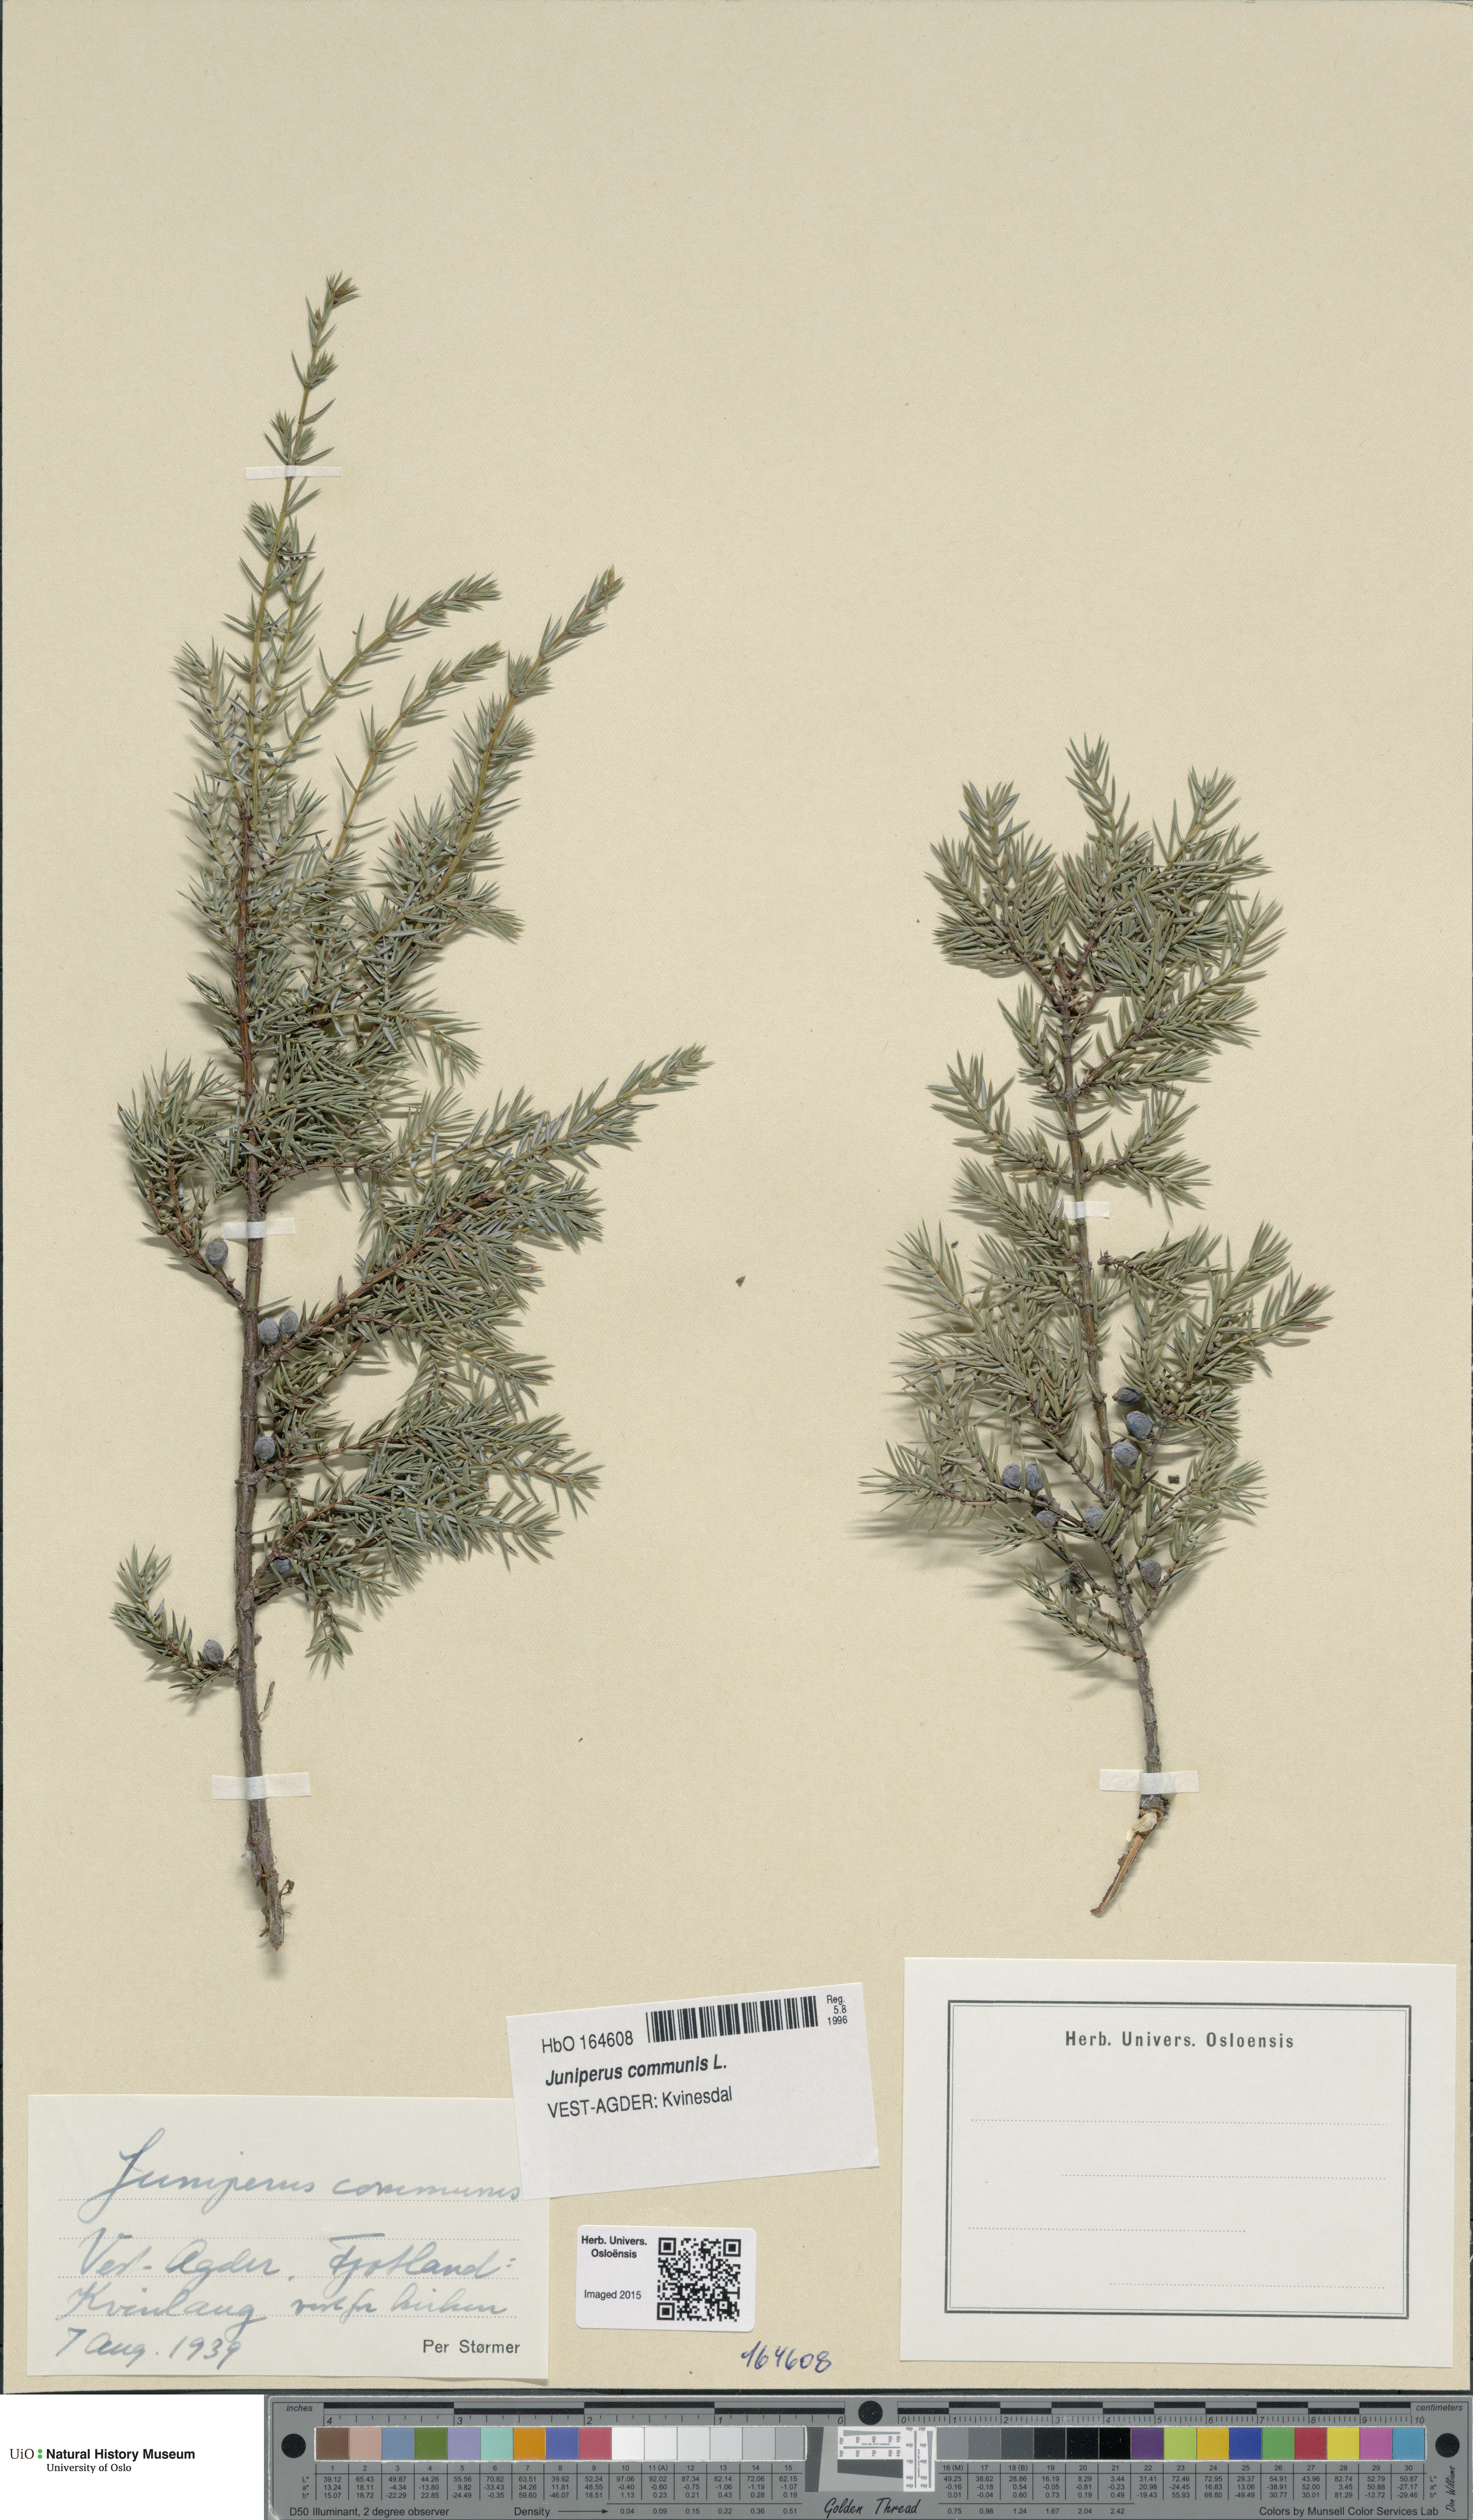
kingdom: Plantae
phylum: Tracheophyta
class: Pinopsida
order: Pinales
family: Cupressaceae
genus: Juniperus
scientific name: Juniperus communis
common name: Common juniper
